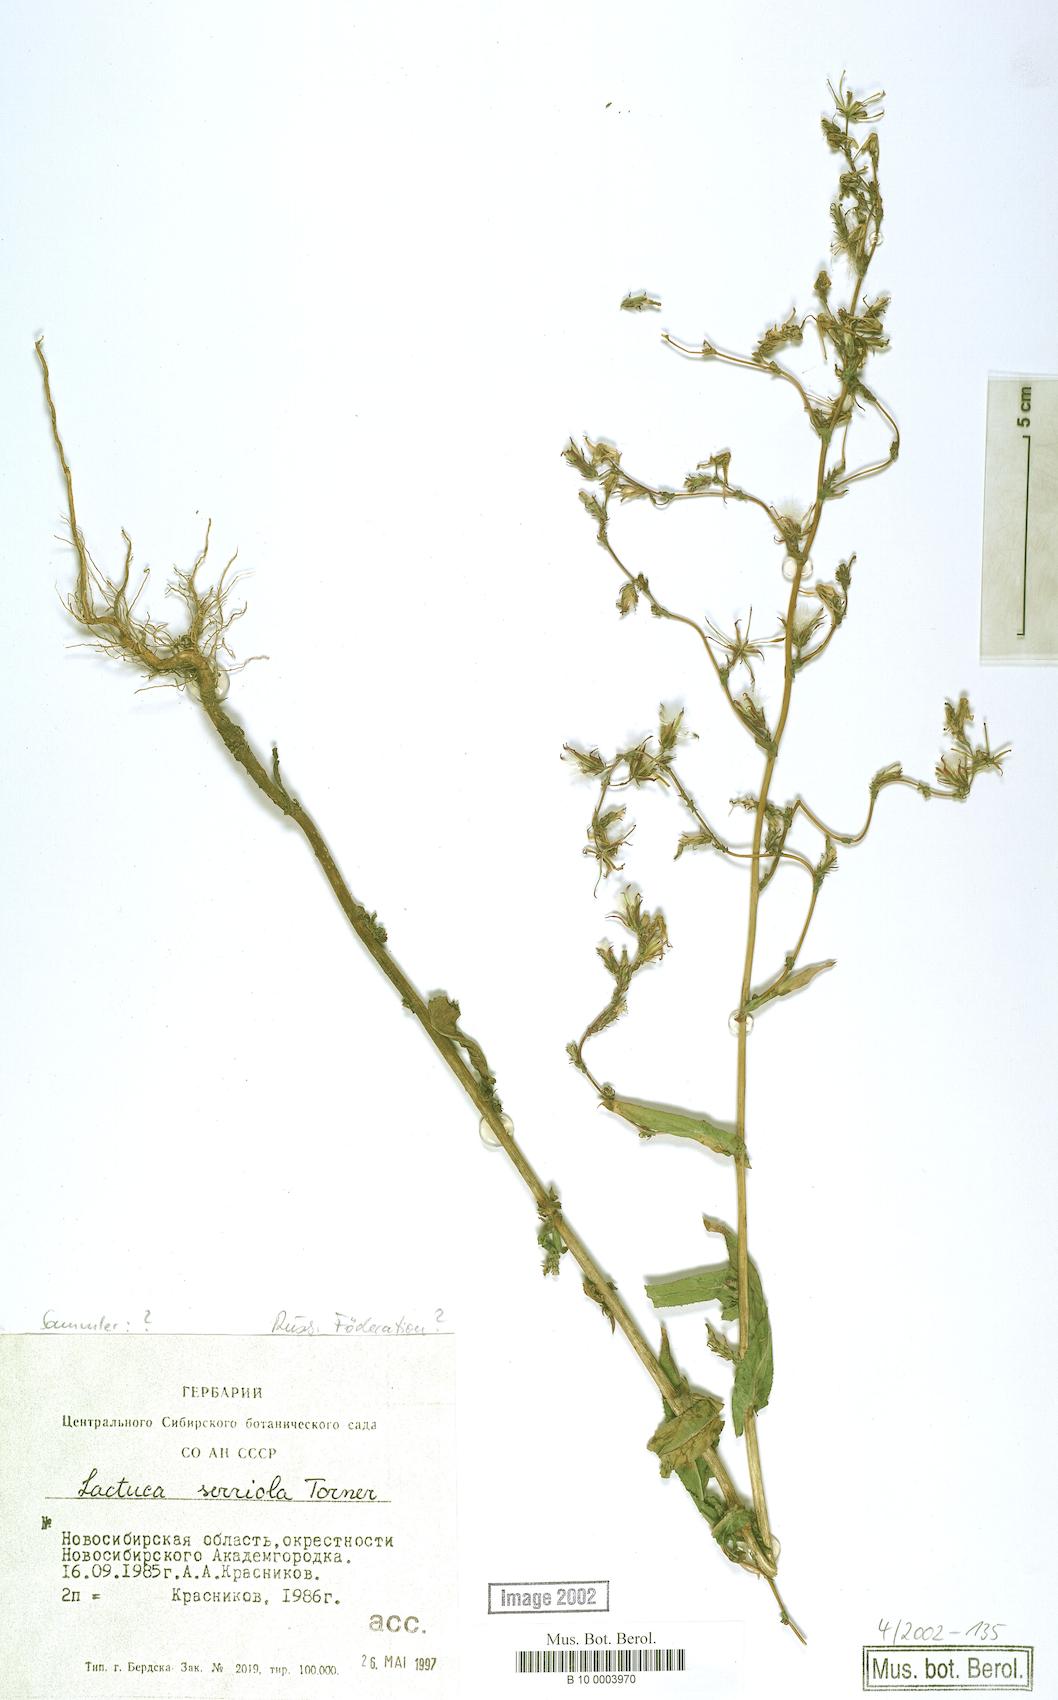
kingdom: Plantae
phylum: Tracheophyta
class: Magnoliopsida
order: Asterales
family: Asteraceae
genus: Lactuca
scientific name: Lactuca serriola
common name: Prickly lettuce
